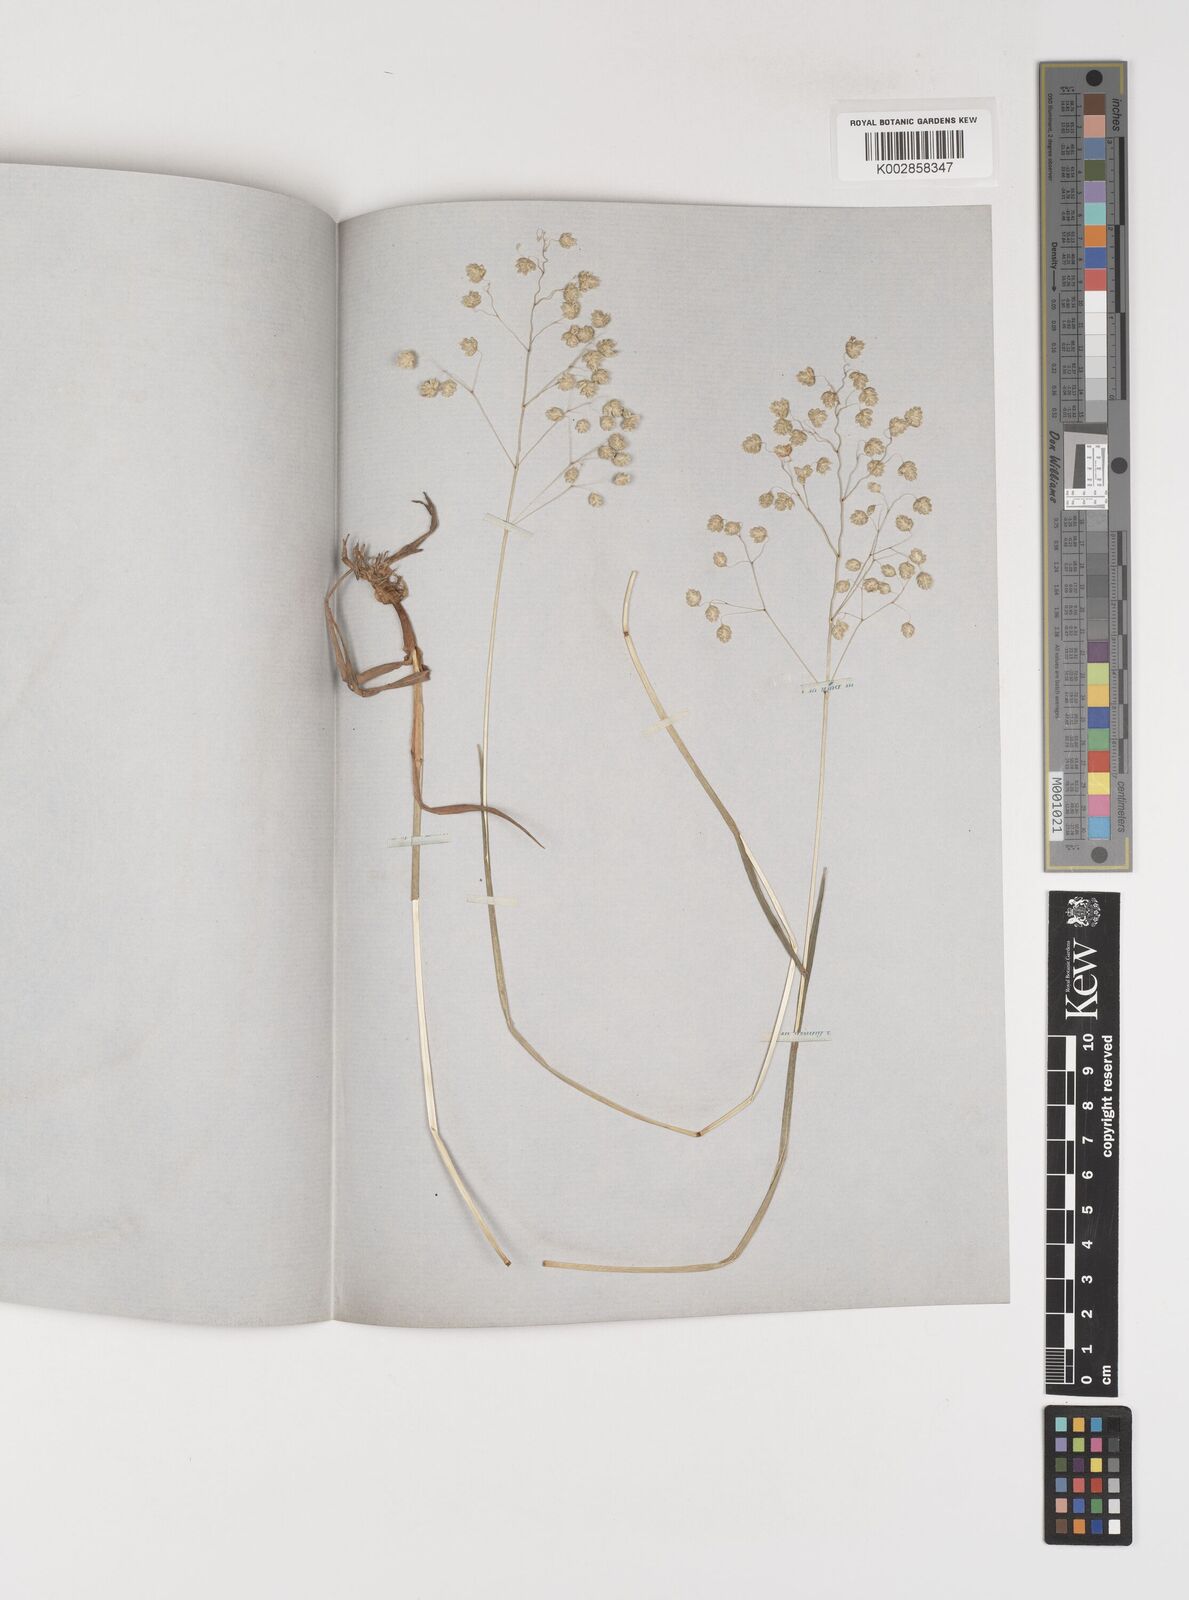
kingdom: Plantae
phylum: Tracheophyta
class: Liliopsida
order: Poales
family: Poaceae
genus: Briza
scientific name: Briza media
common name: Quaking grass
